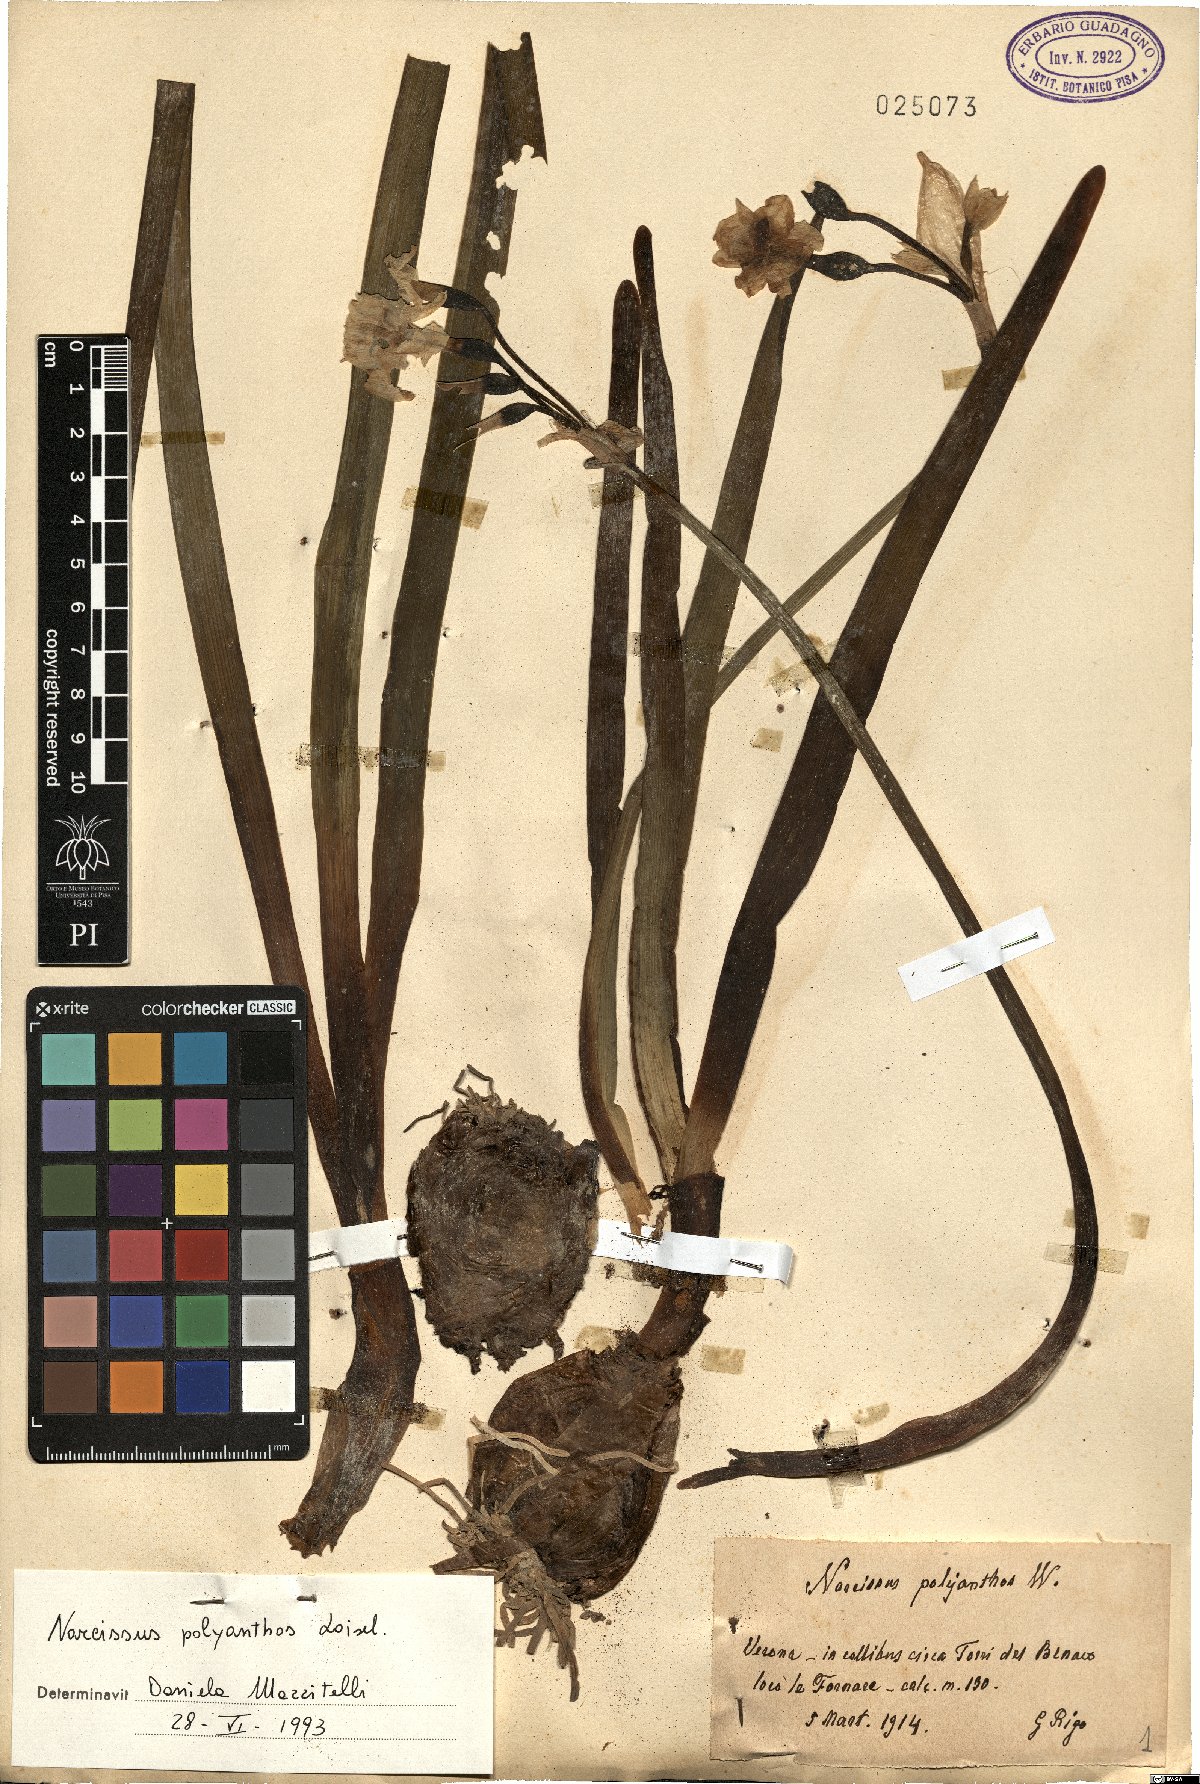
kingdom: Plantae
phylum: Tracheophyta
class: Liliopsida
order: Asparagales
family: Amaryllidaceae
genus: Narcissus
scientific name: Narcissus papyraceus
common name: Paper-white daffodil
